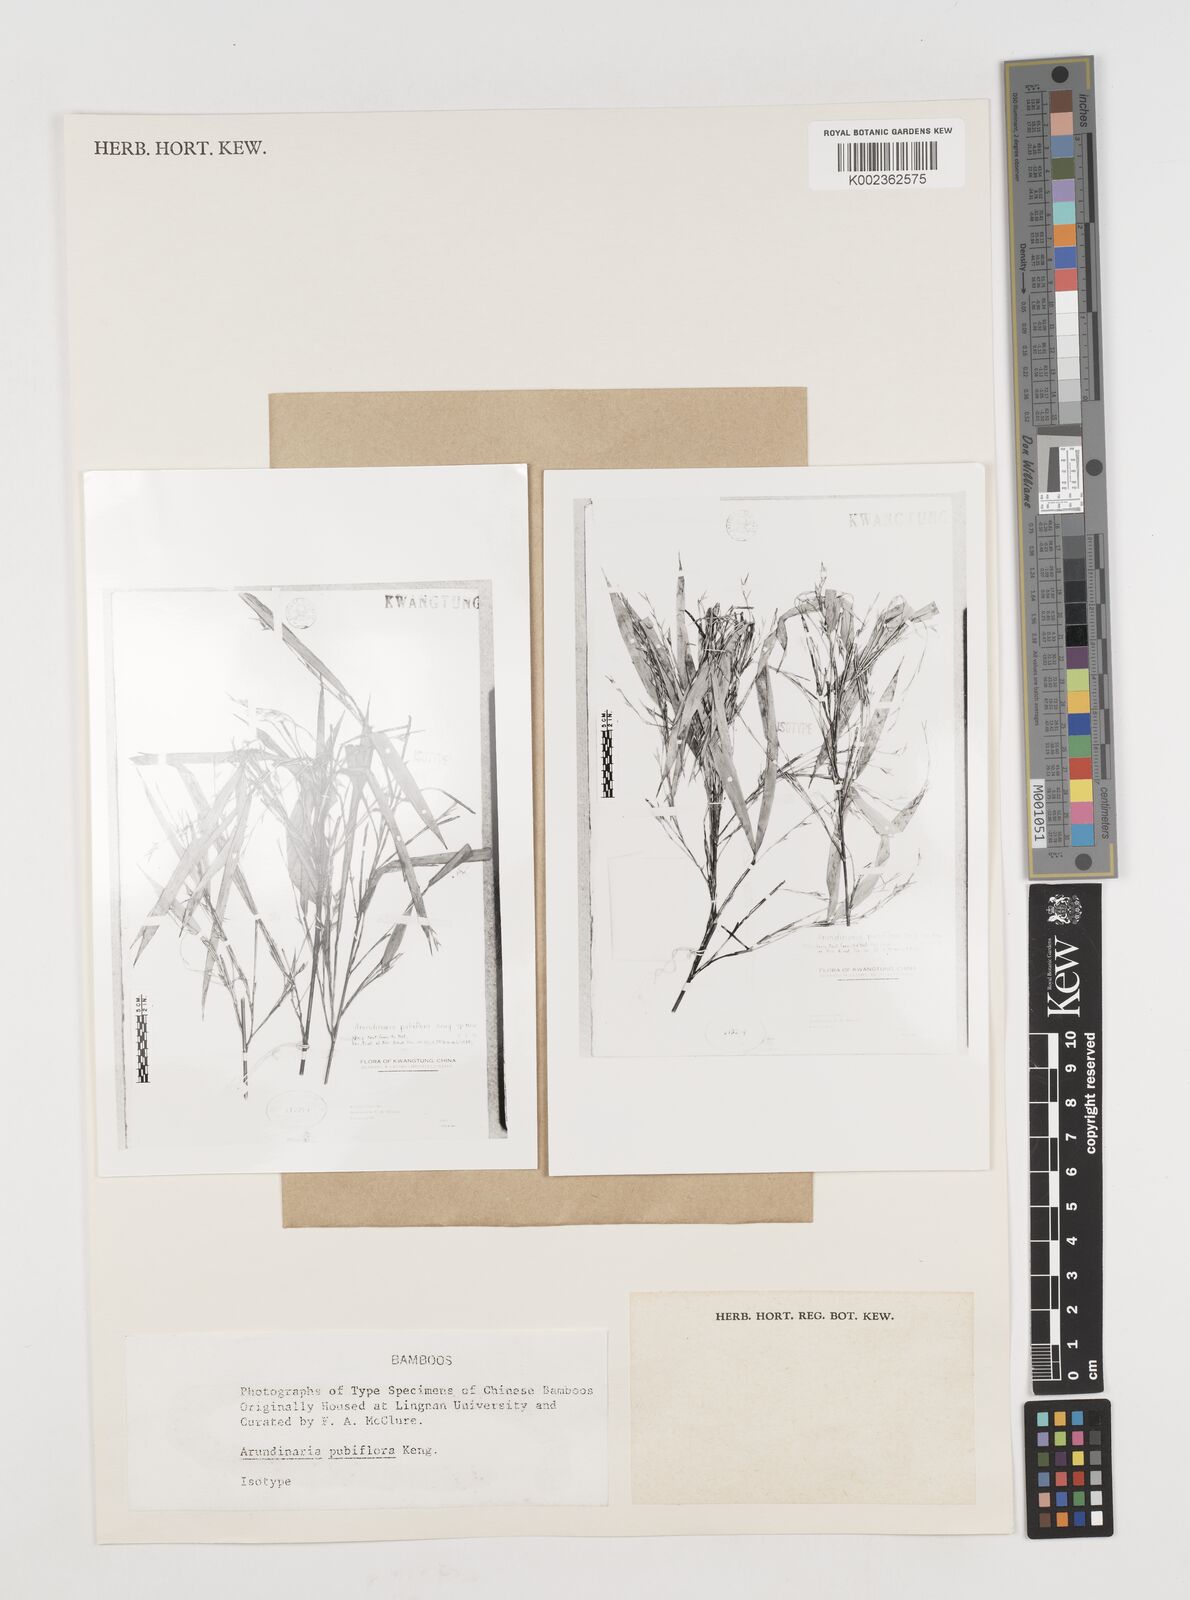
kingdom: Plantae
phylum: Tracheophyta
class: Liliopsida
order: Poales
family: Poaceae
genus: Pseudosasa
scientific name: Pseudosasa pubiflora
